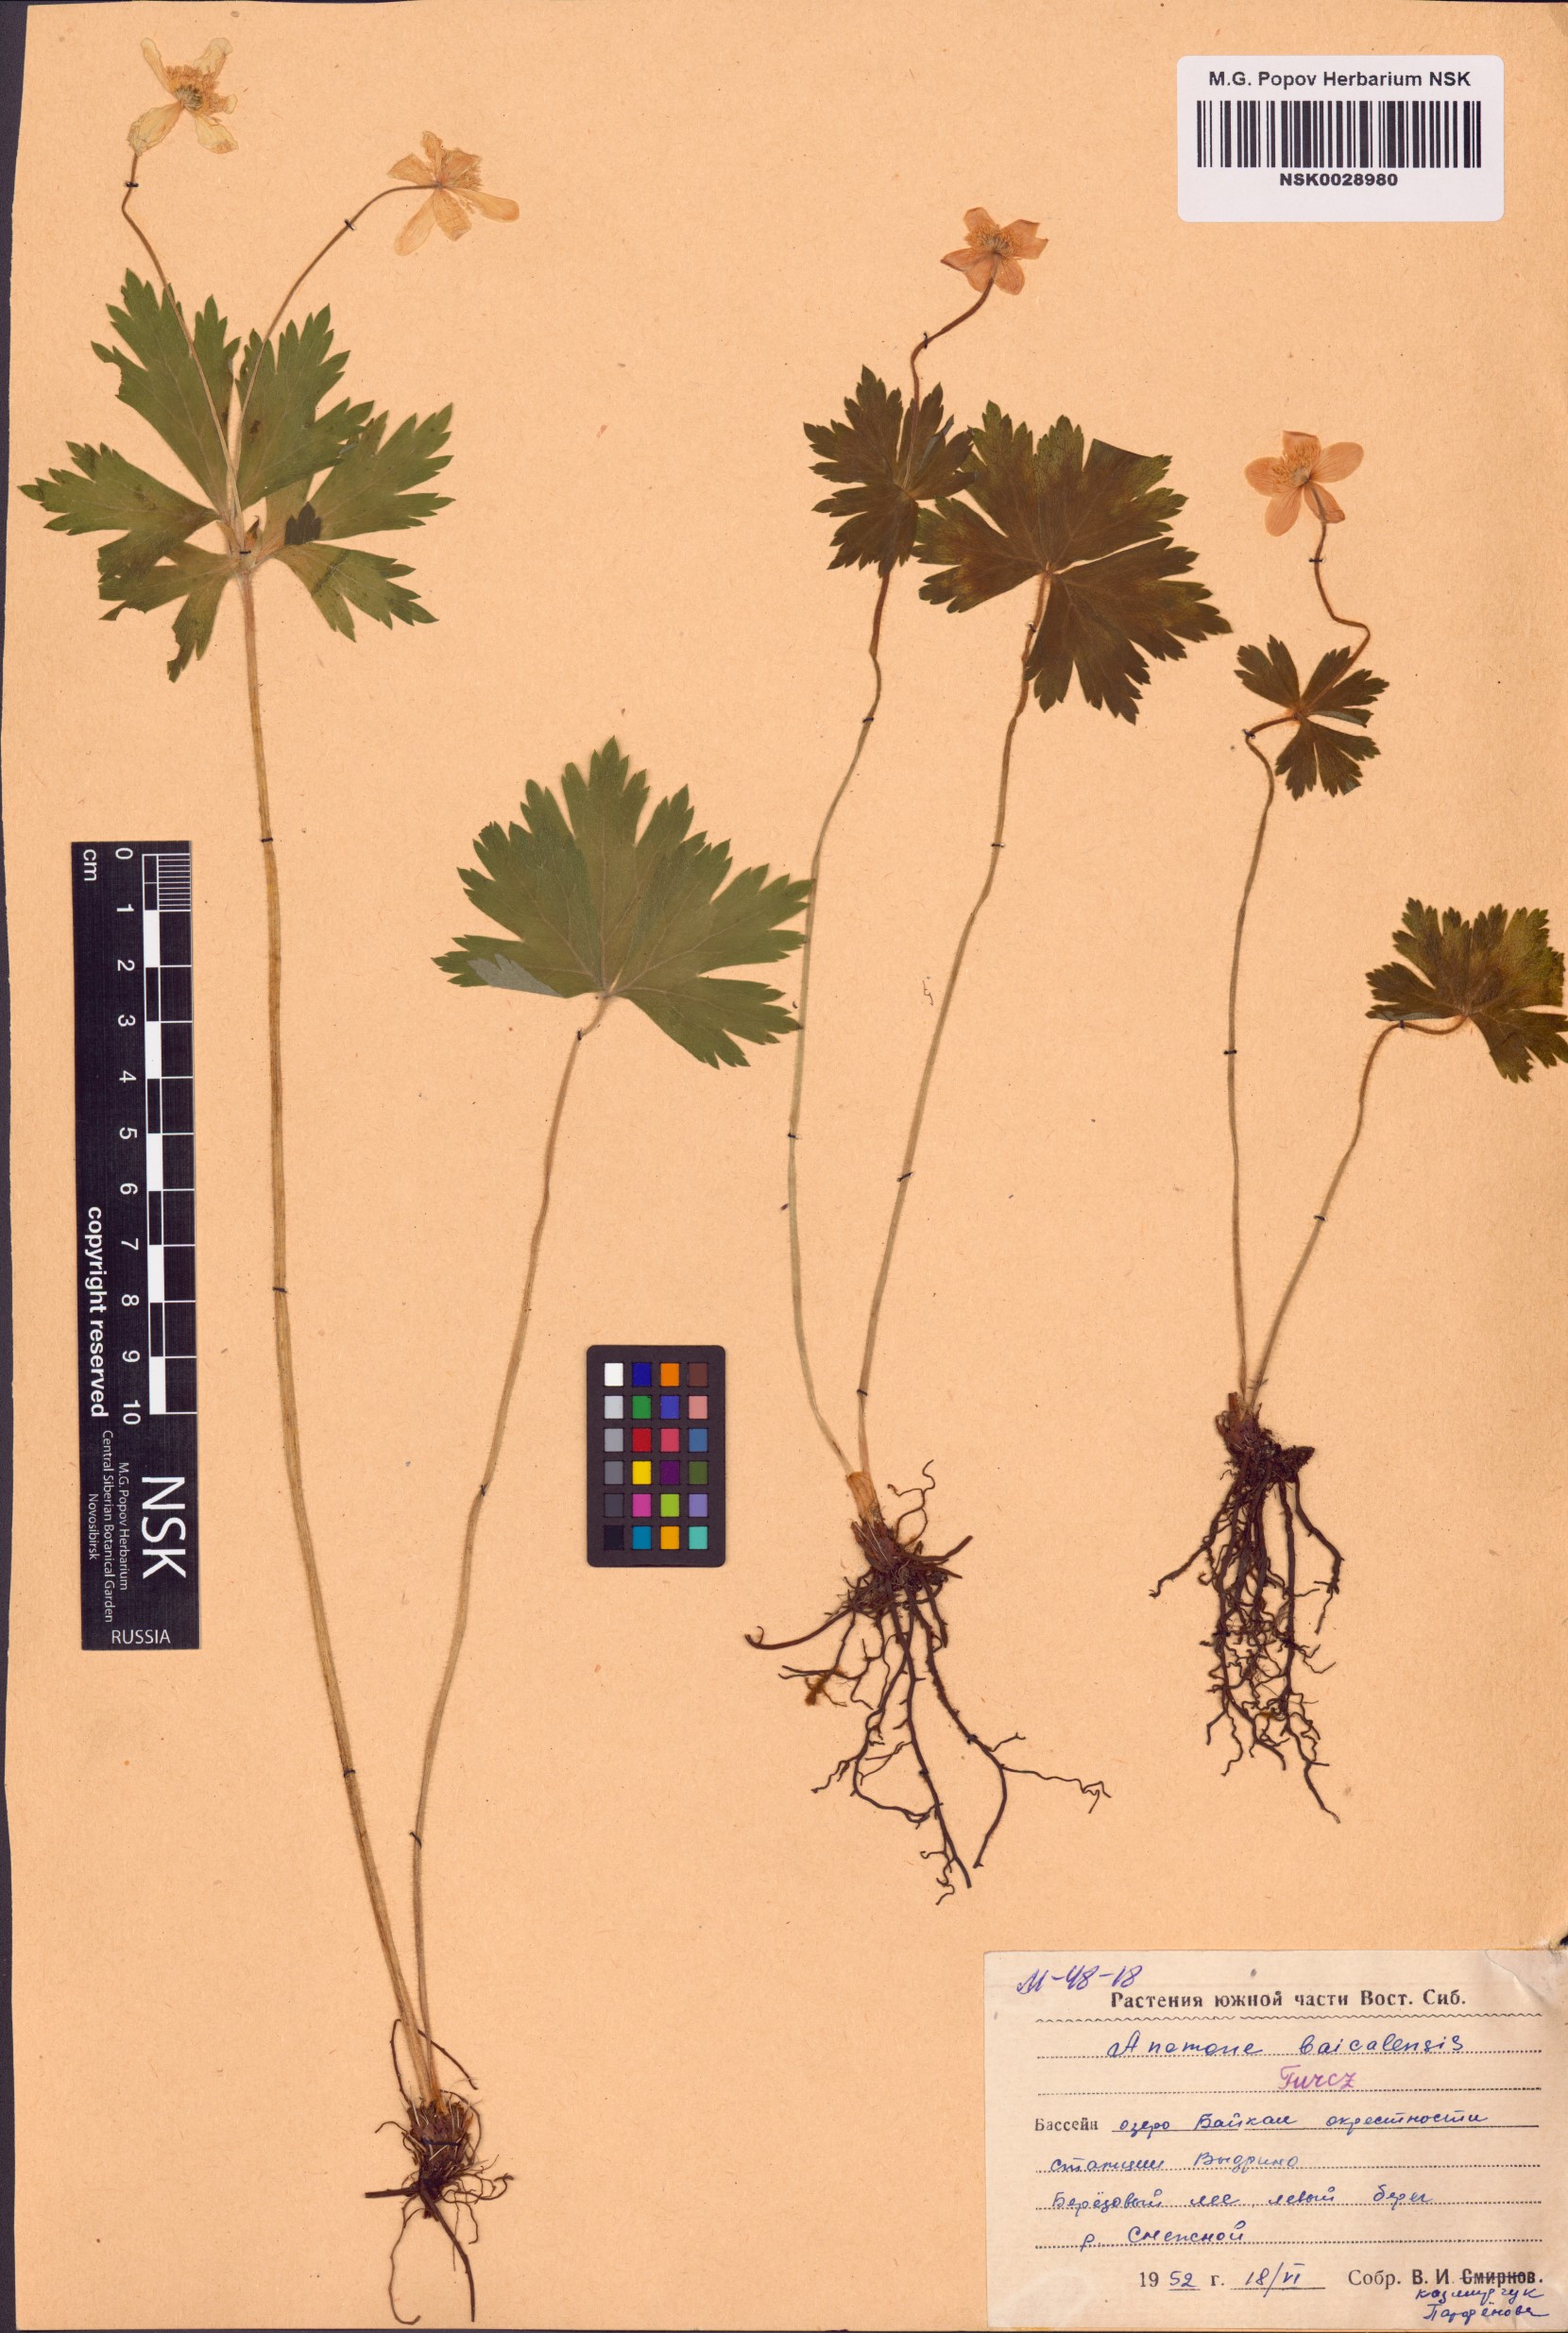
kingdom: Plantae
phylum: Tracheophyta
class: Magnoliopsida
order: Ranunculales
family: Ranunculaceae
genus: Anemonastrum
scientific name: Anemonastrum baicalense
